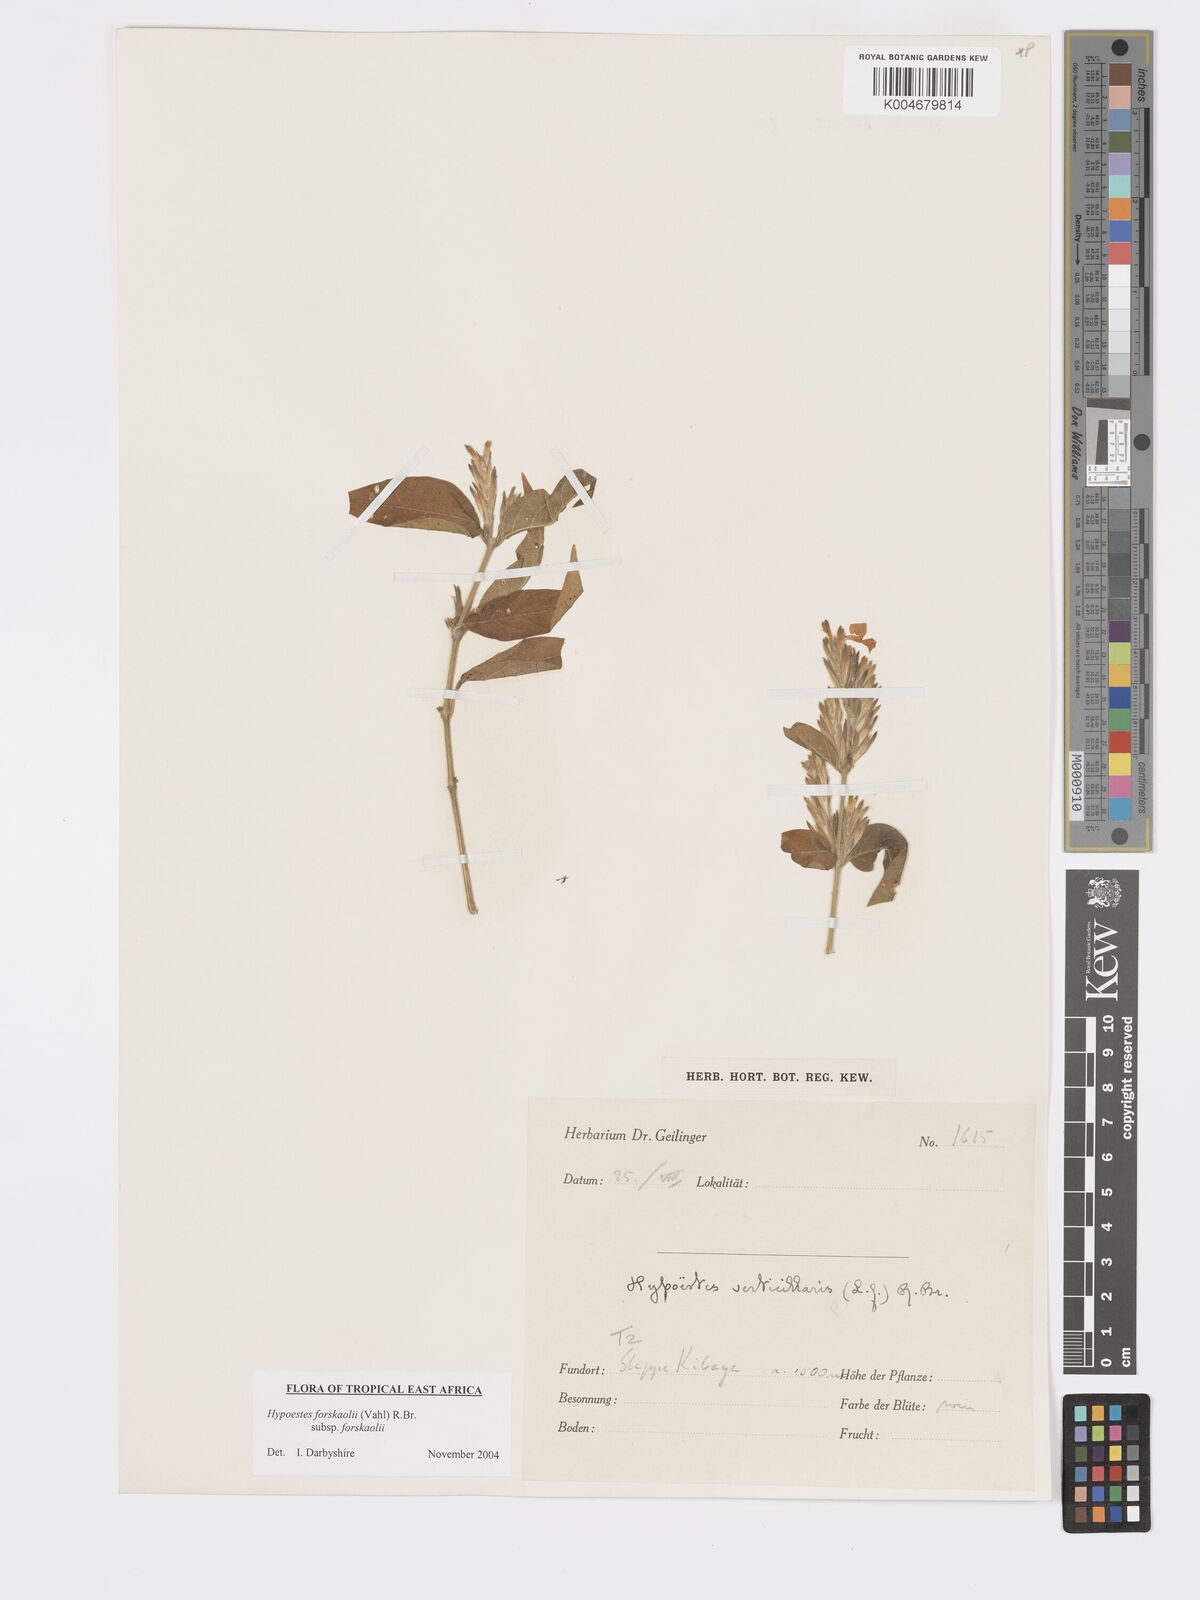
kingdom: Plantae
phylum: Tracheophyta
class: Magnoliopsida
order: Lamiales
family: Acanthaceae
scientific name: Acanthaceae
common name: Acanthaceae
